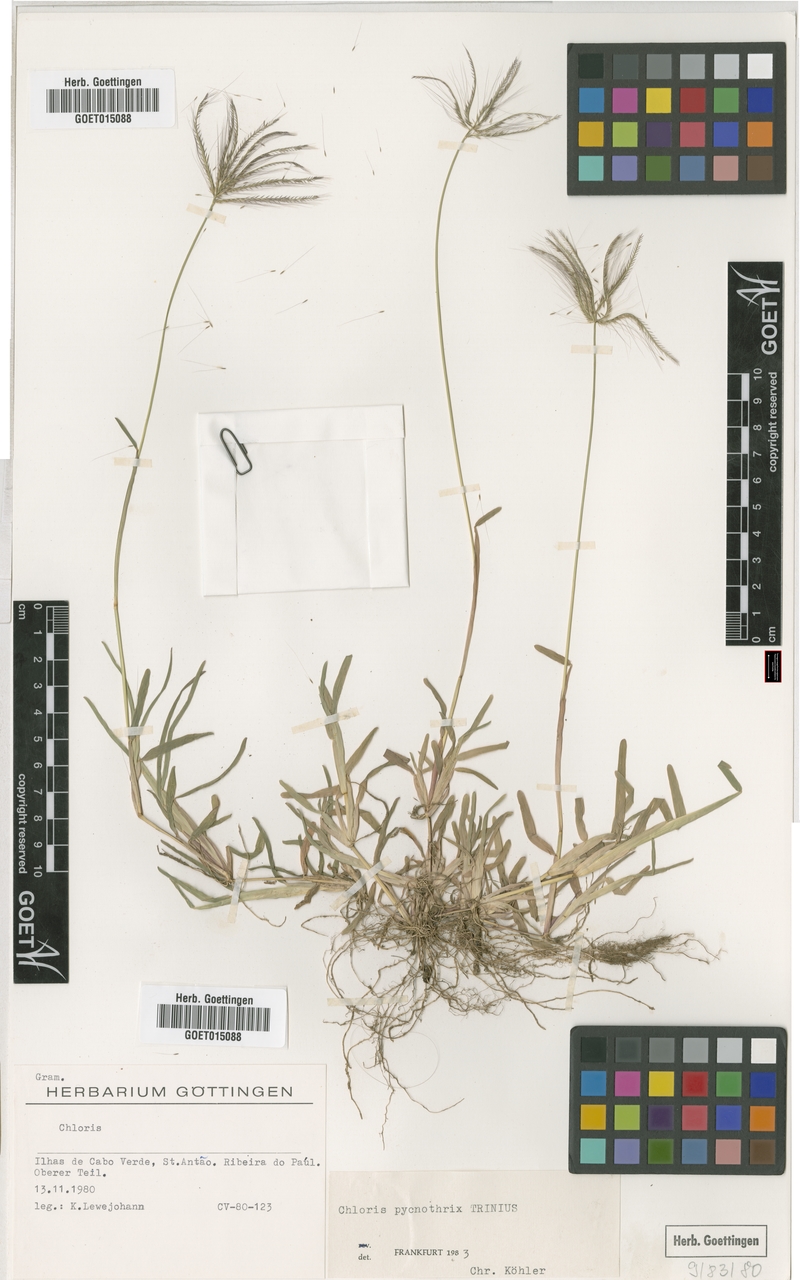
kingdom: Plantae
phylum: Tracheophyta
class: Liliopsida
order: Poales
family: Poaceae
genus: Chloris
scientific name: Chloris pycnothrix
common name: Spiderweb chloris
